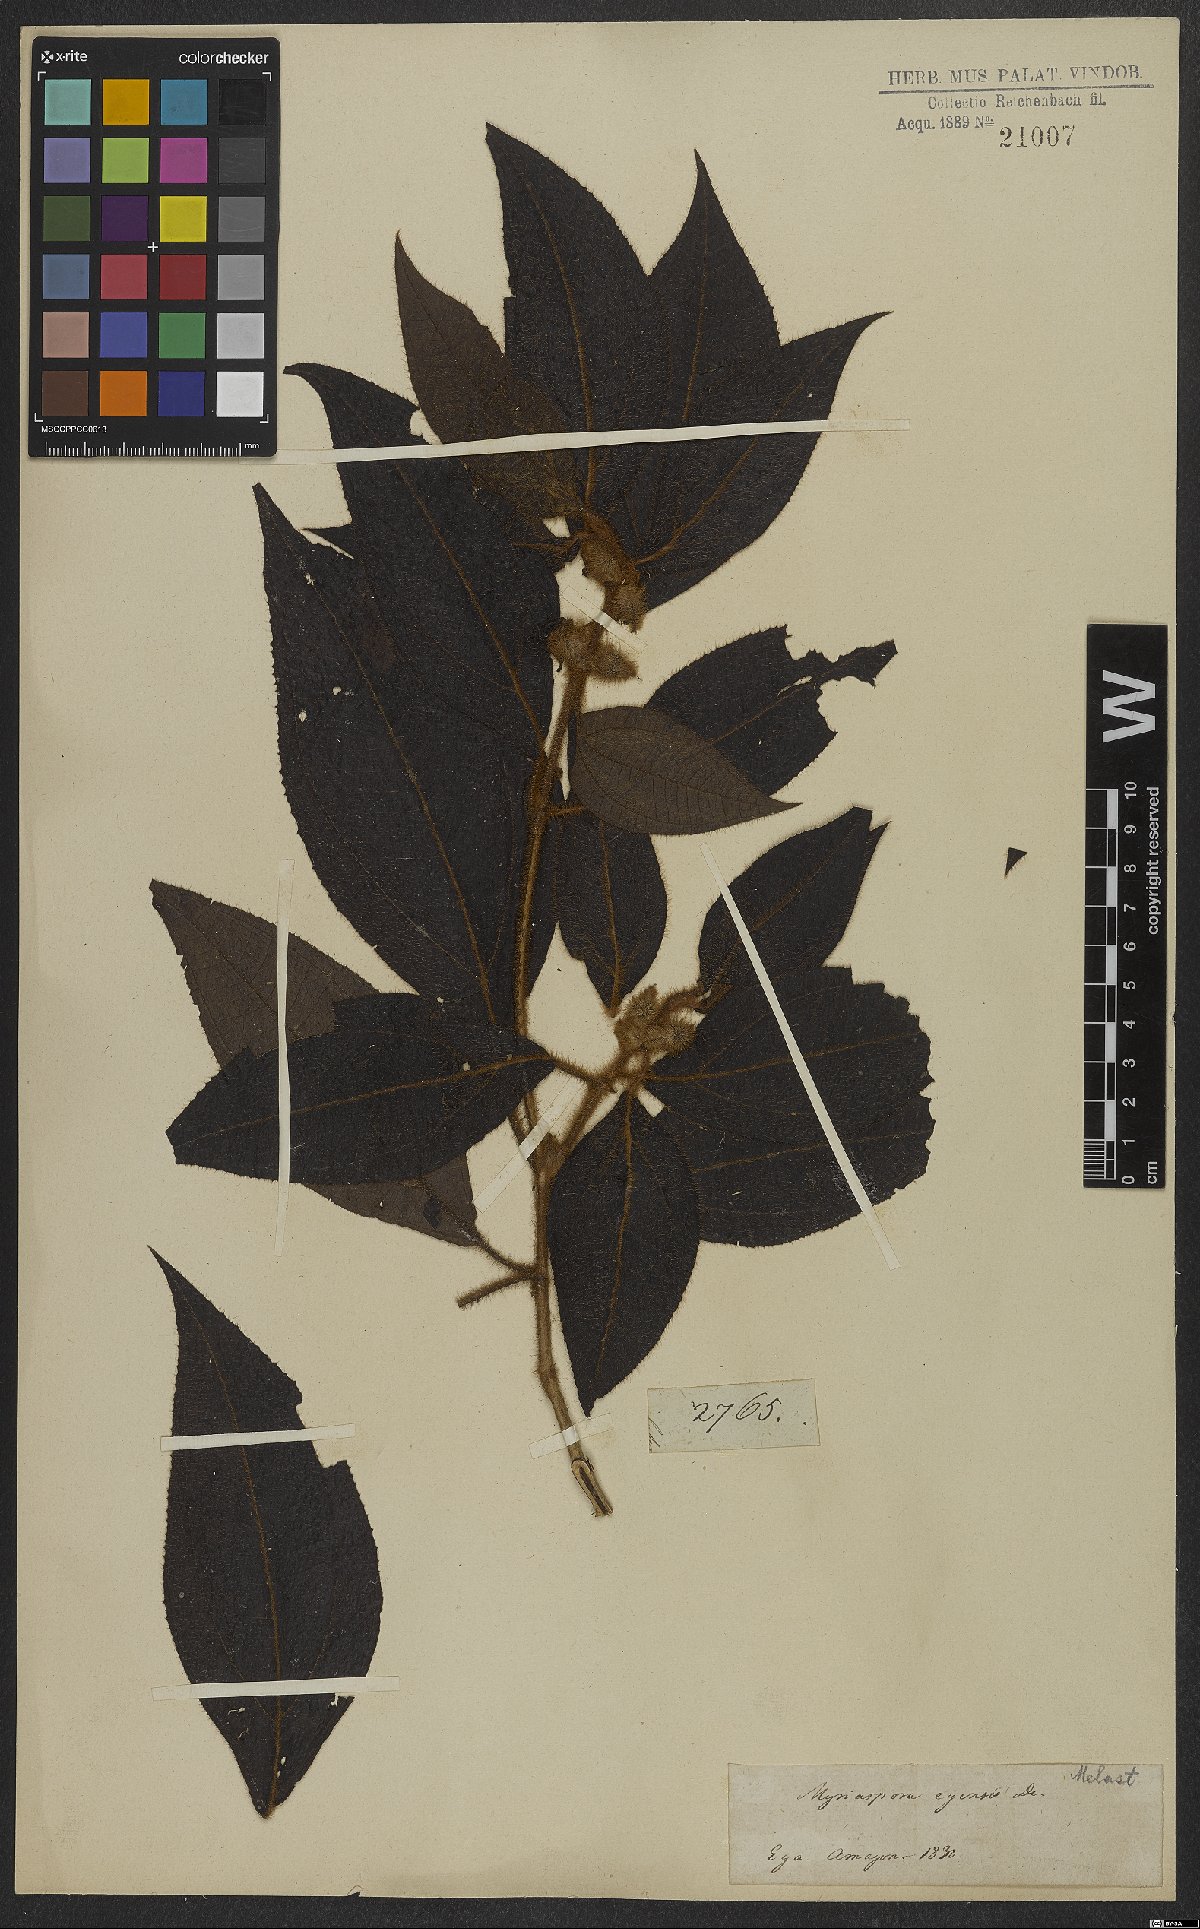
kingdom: Plantae
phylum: Tracheophyta
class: Magnoliopsida
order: Myrtales
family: Melastomataceae
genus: Bellucia
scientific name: Bellucia egensis
